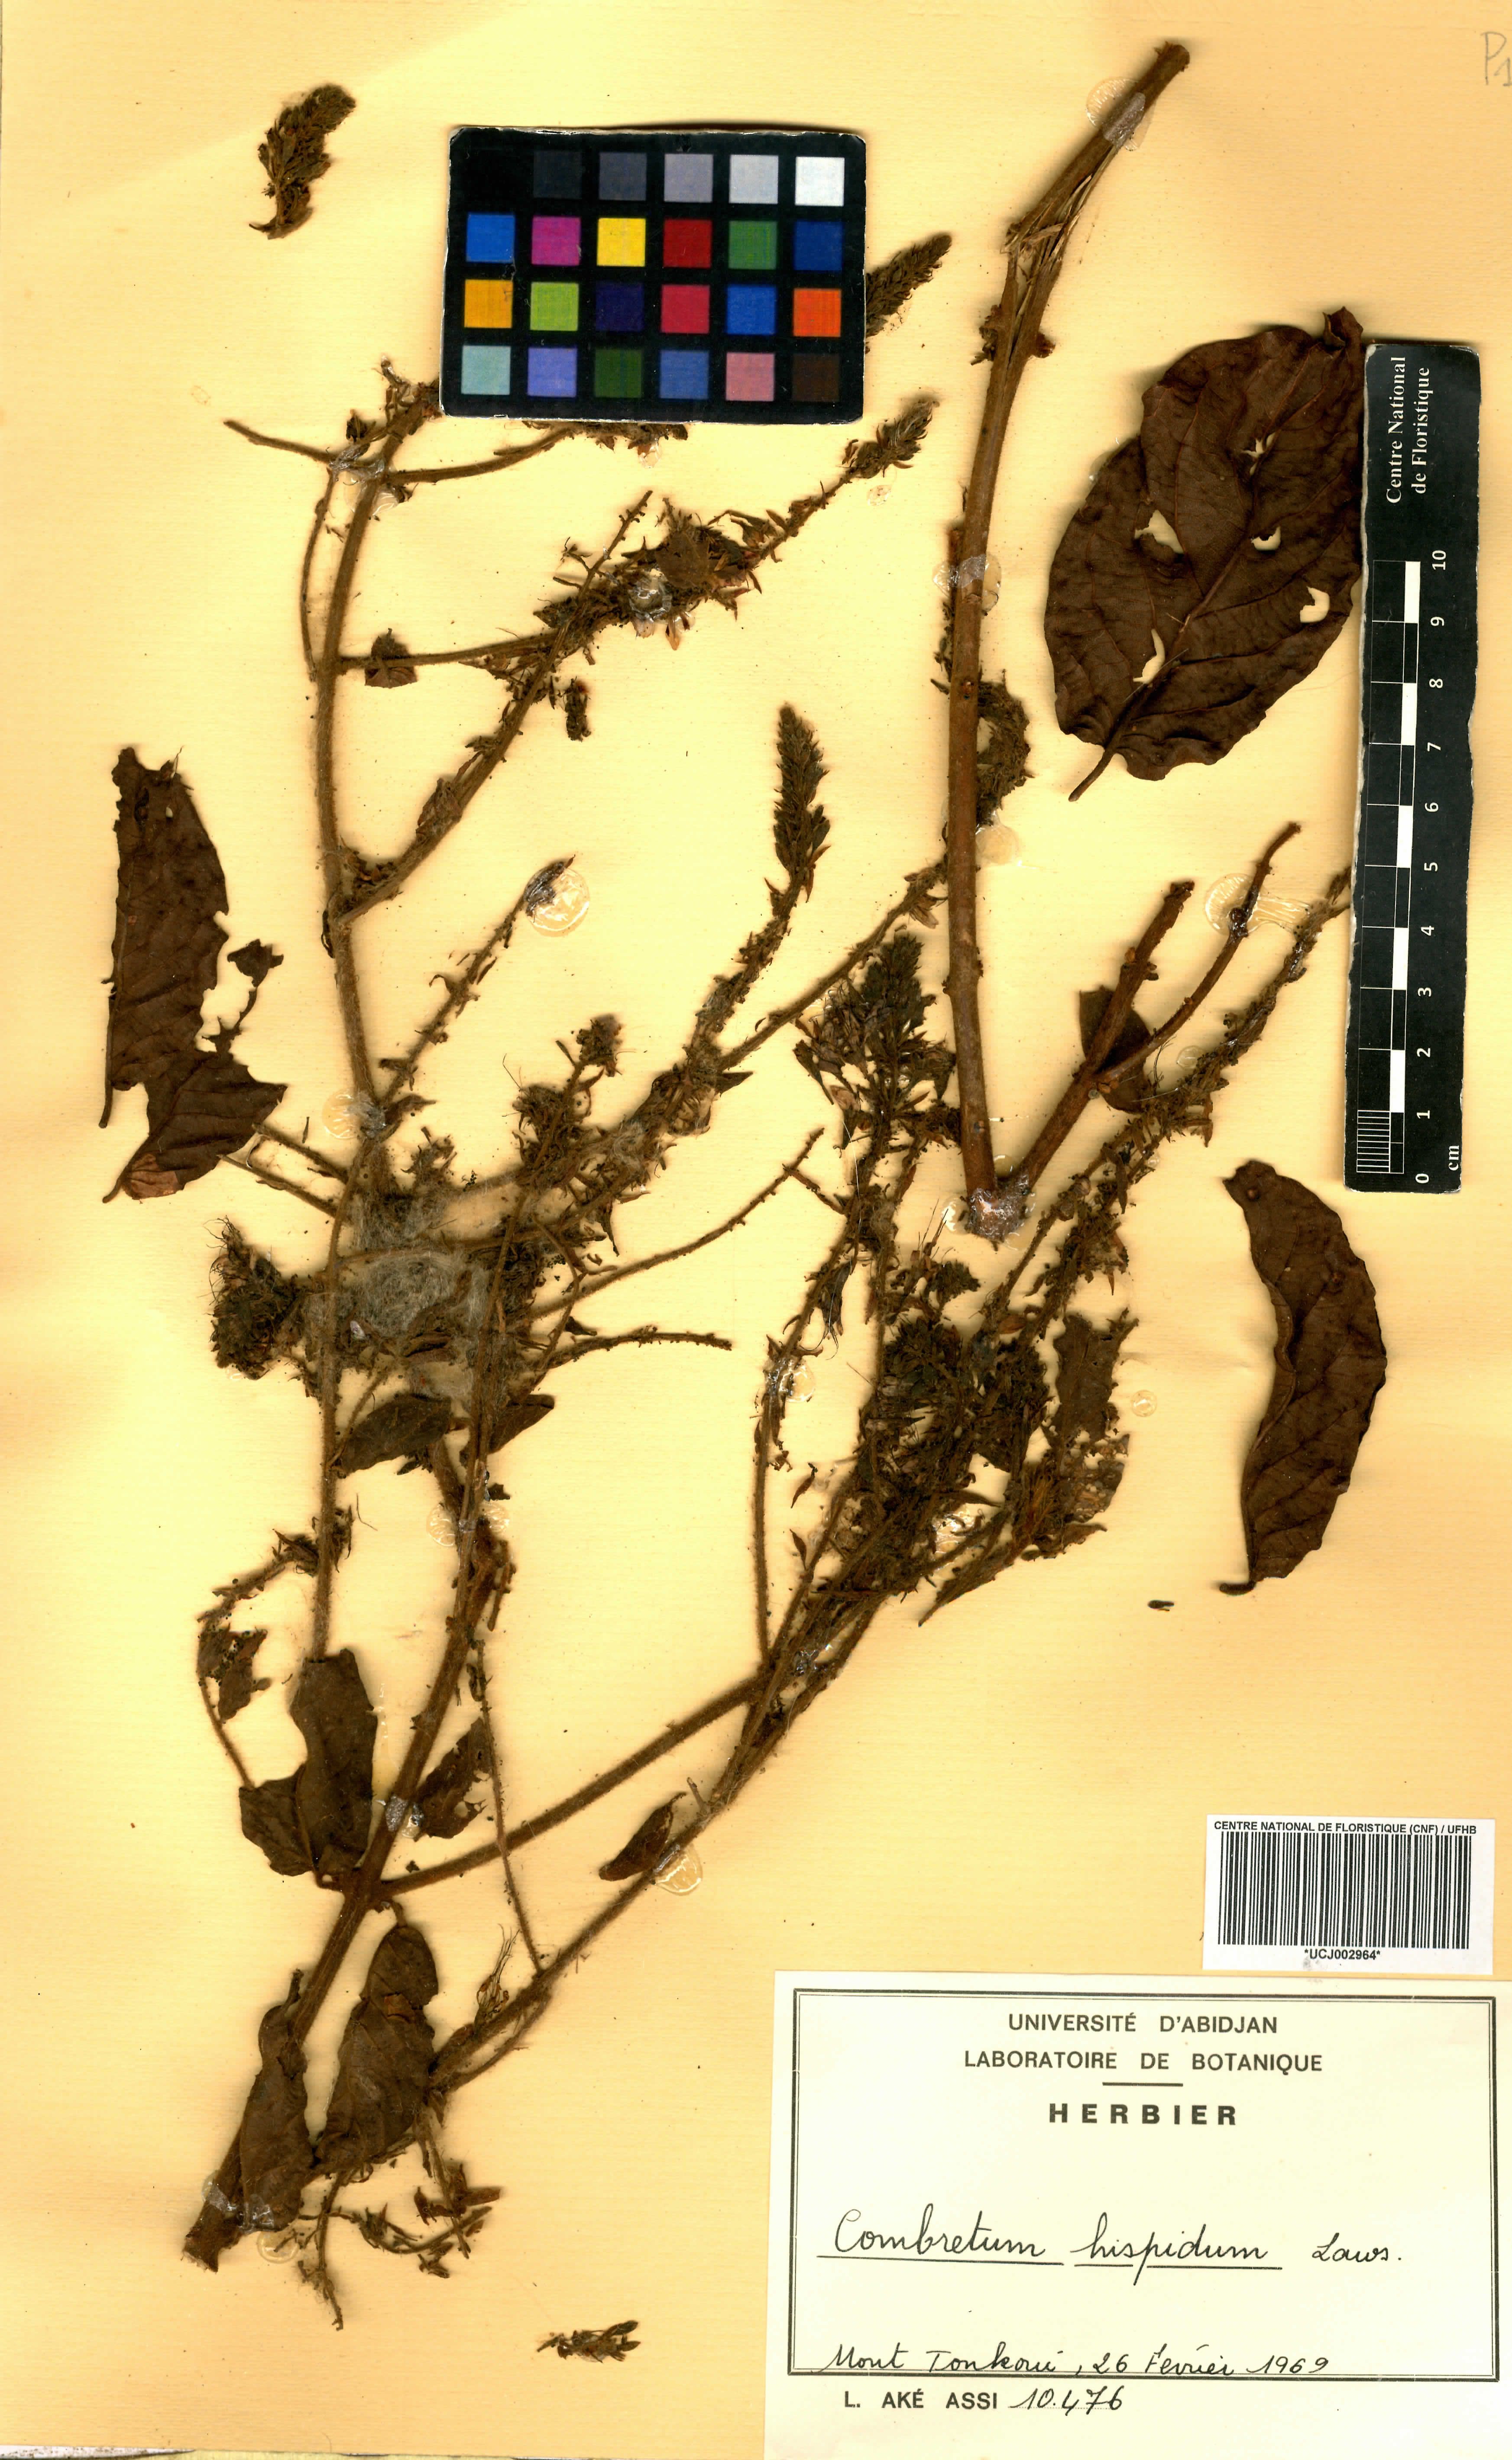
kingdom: Plantae
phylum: Tracheophyta
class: Magnoliopsida
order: Myrtales
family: Combretaceae
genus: Combretum
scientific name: Combretum comosum
